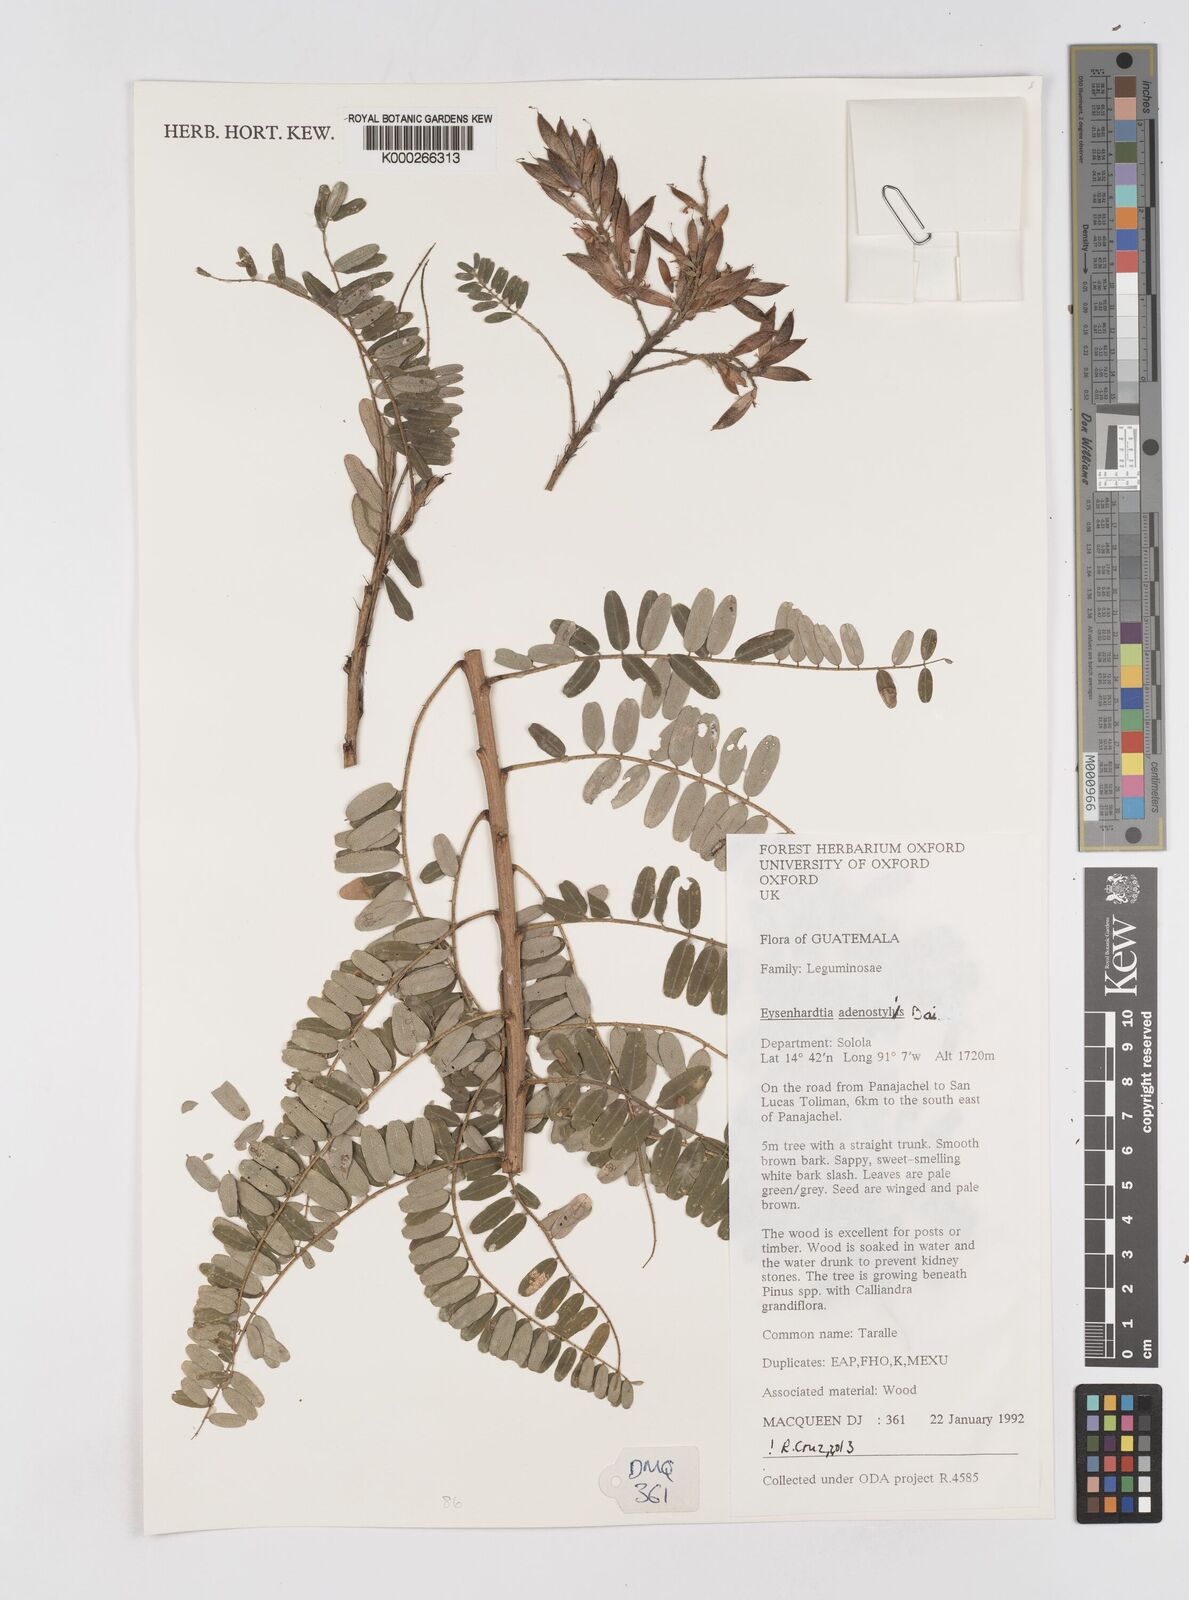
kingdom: Plantae
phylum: Tracheophyta
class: Magnoliopsida
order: Fabales
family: Fabaceae
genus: Eysenhardtia
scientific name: Eysenhardtia adenostylis
